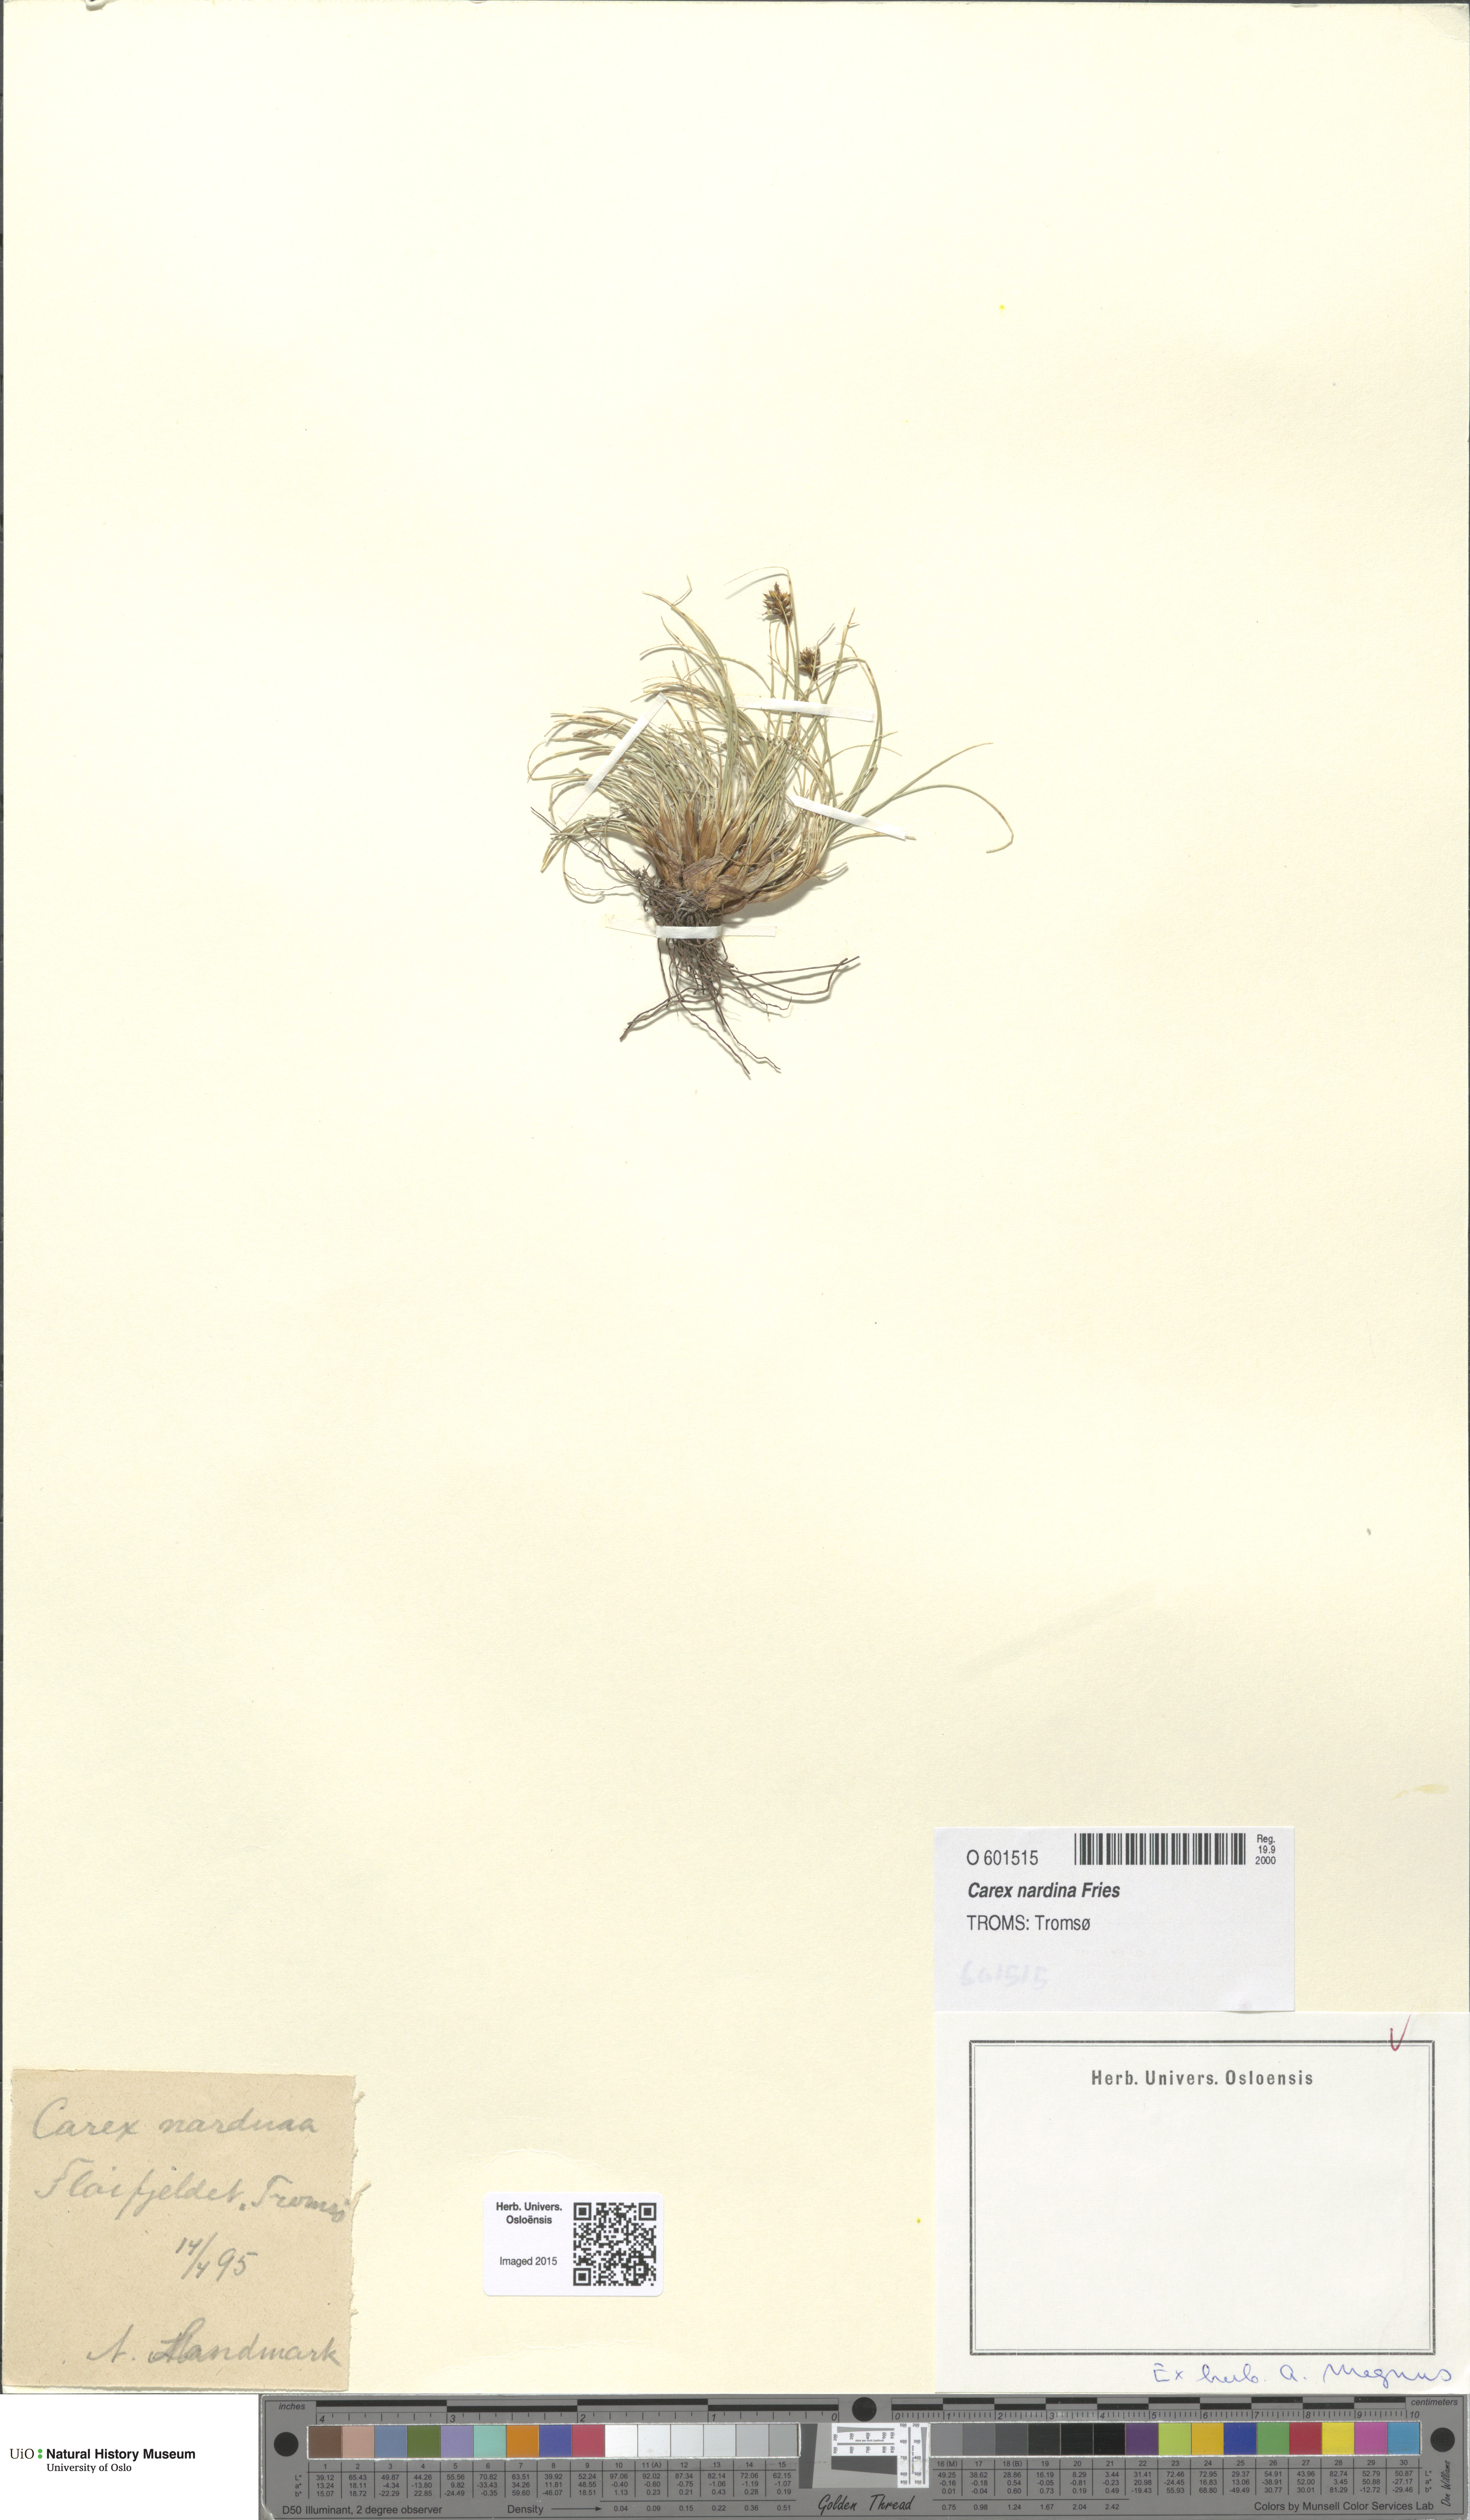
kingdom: Plantae
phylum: Tracheophyta
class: Liliopsida
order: Poales
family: Cyperaceae
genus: Carex
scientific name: Carex nardina
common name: Nard sedge
